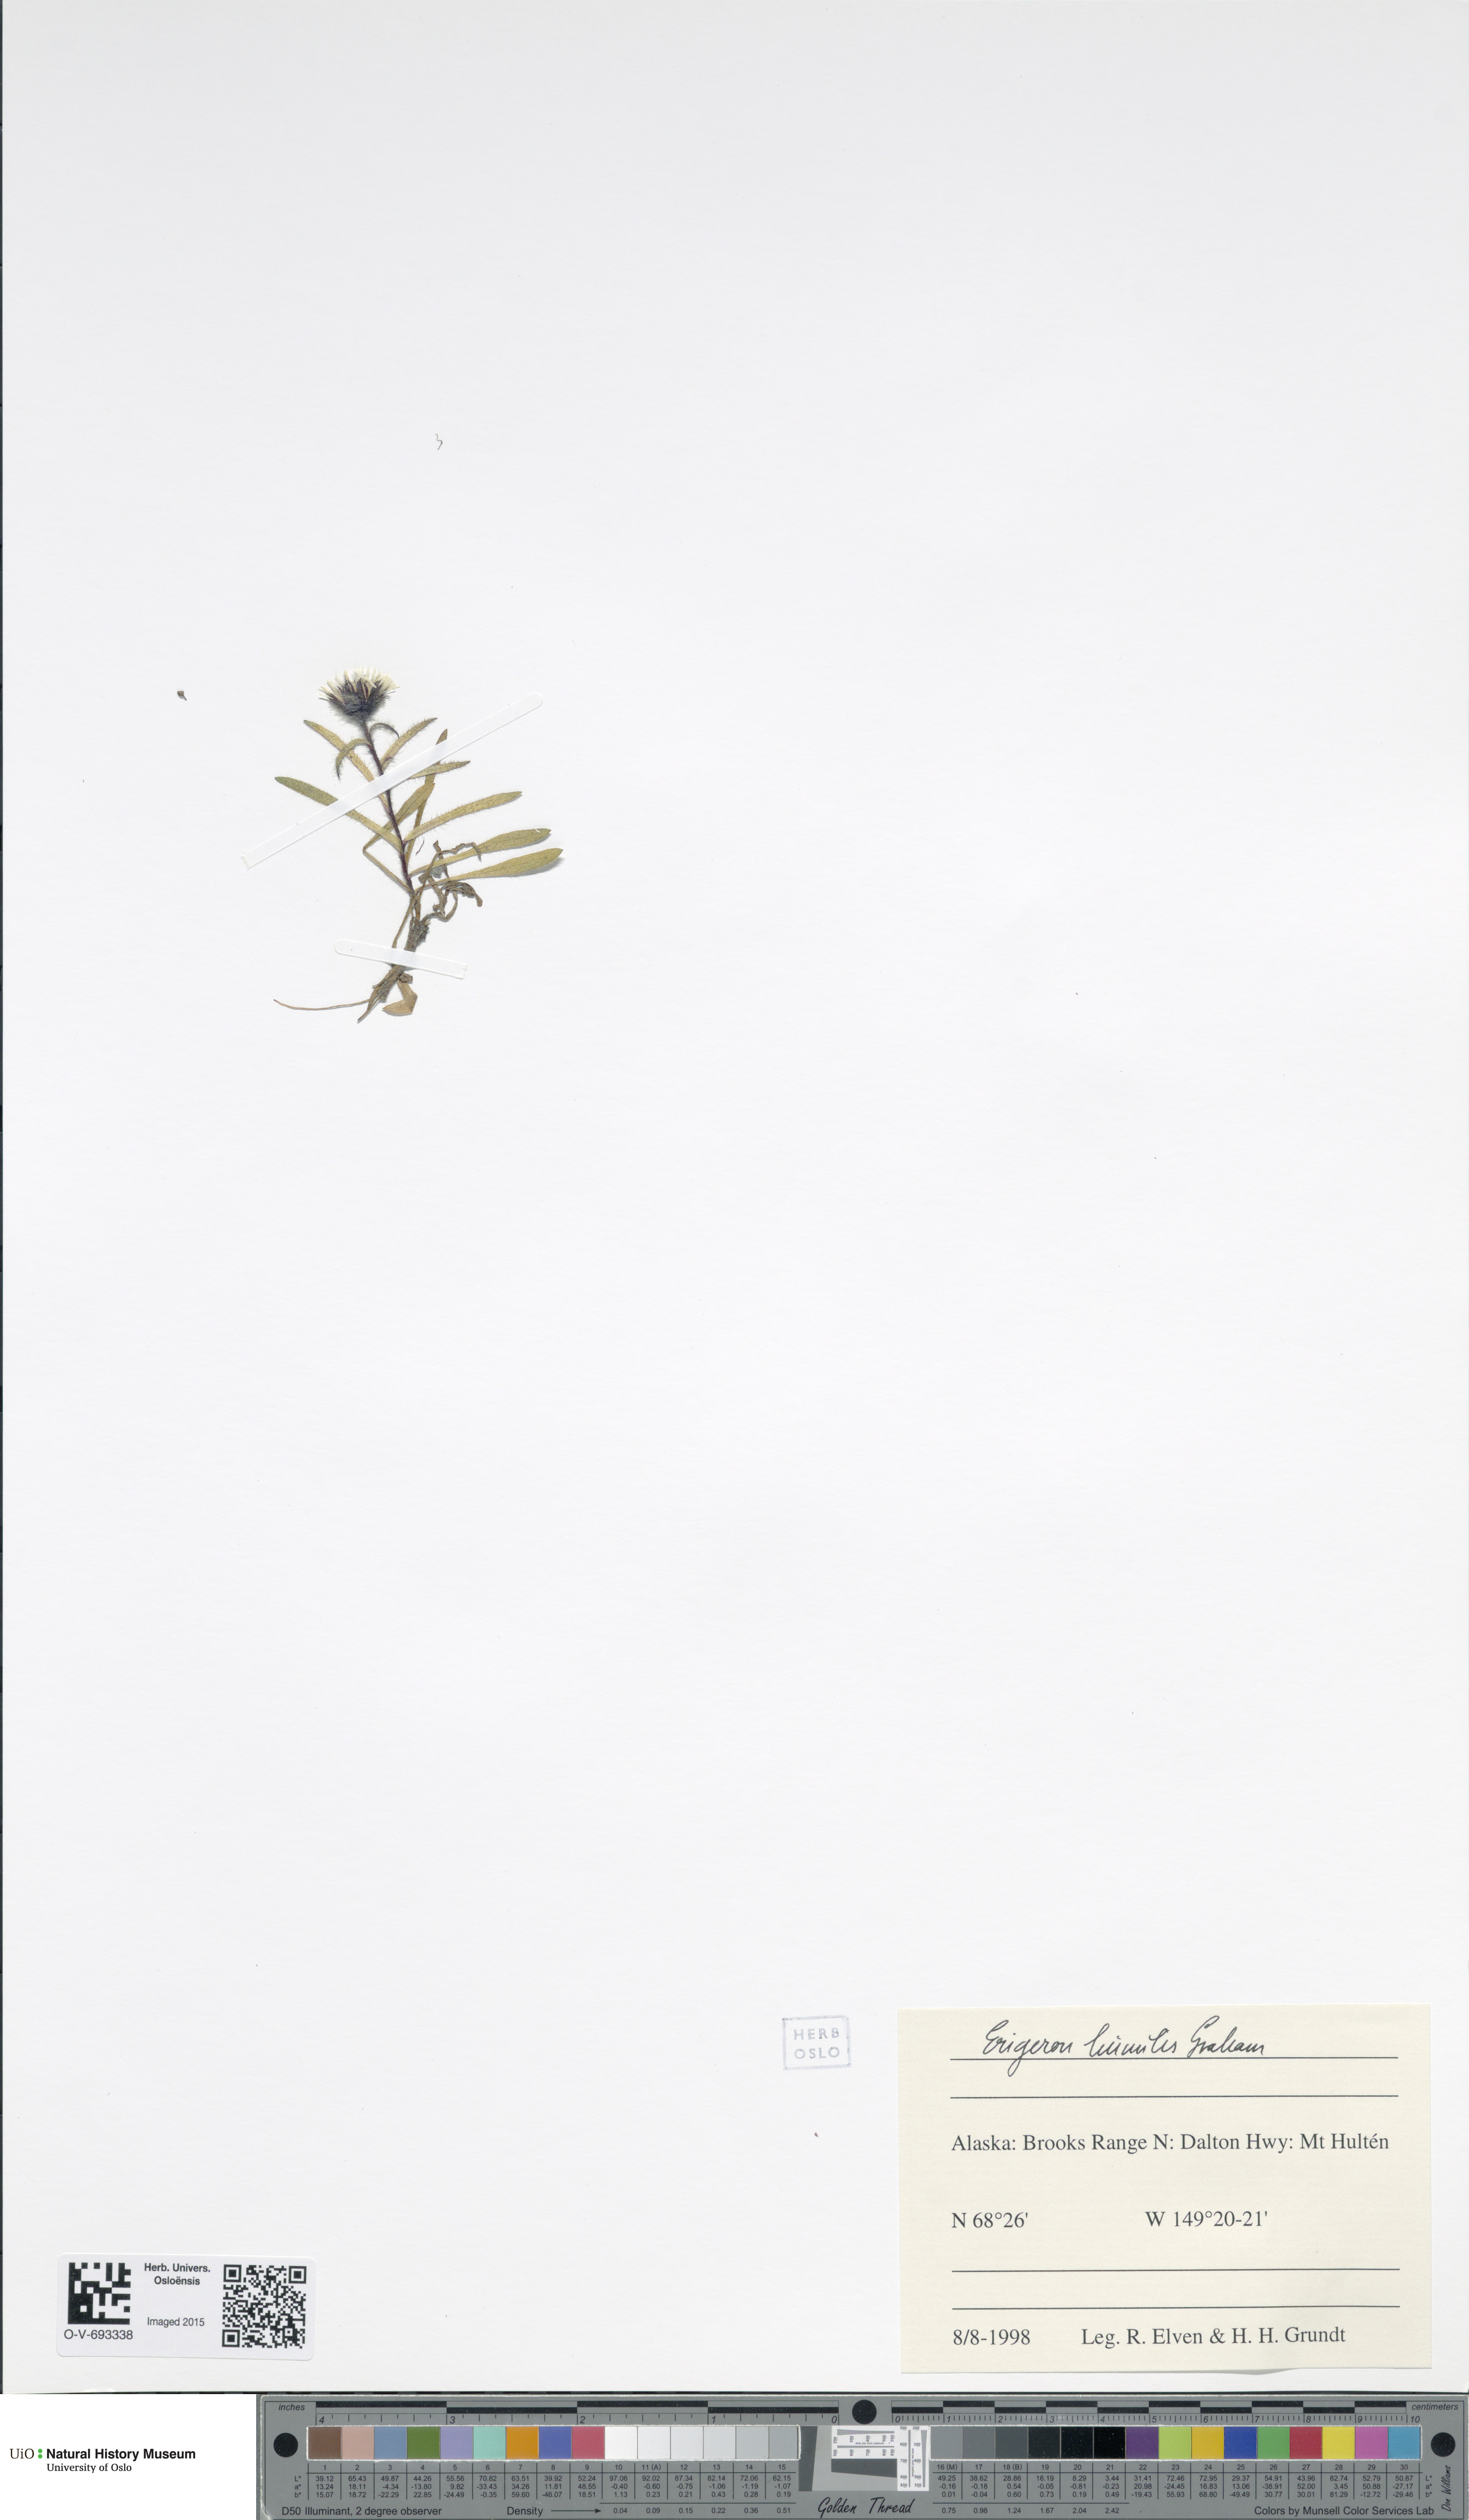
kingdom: Plantae
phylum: Tracheophyta
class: Magnoliopsida
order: Asterales
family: Asteraceae
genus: Erigeron
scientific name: Erigeron humilis
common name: Arctic-alpine fleabane
